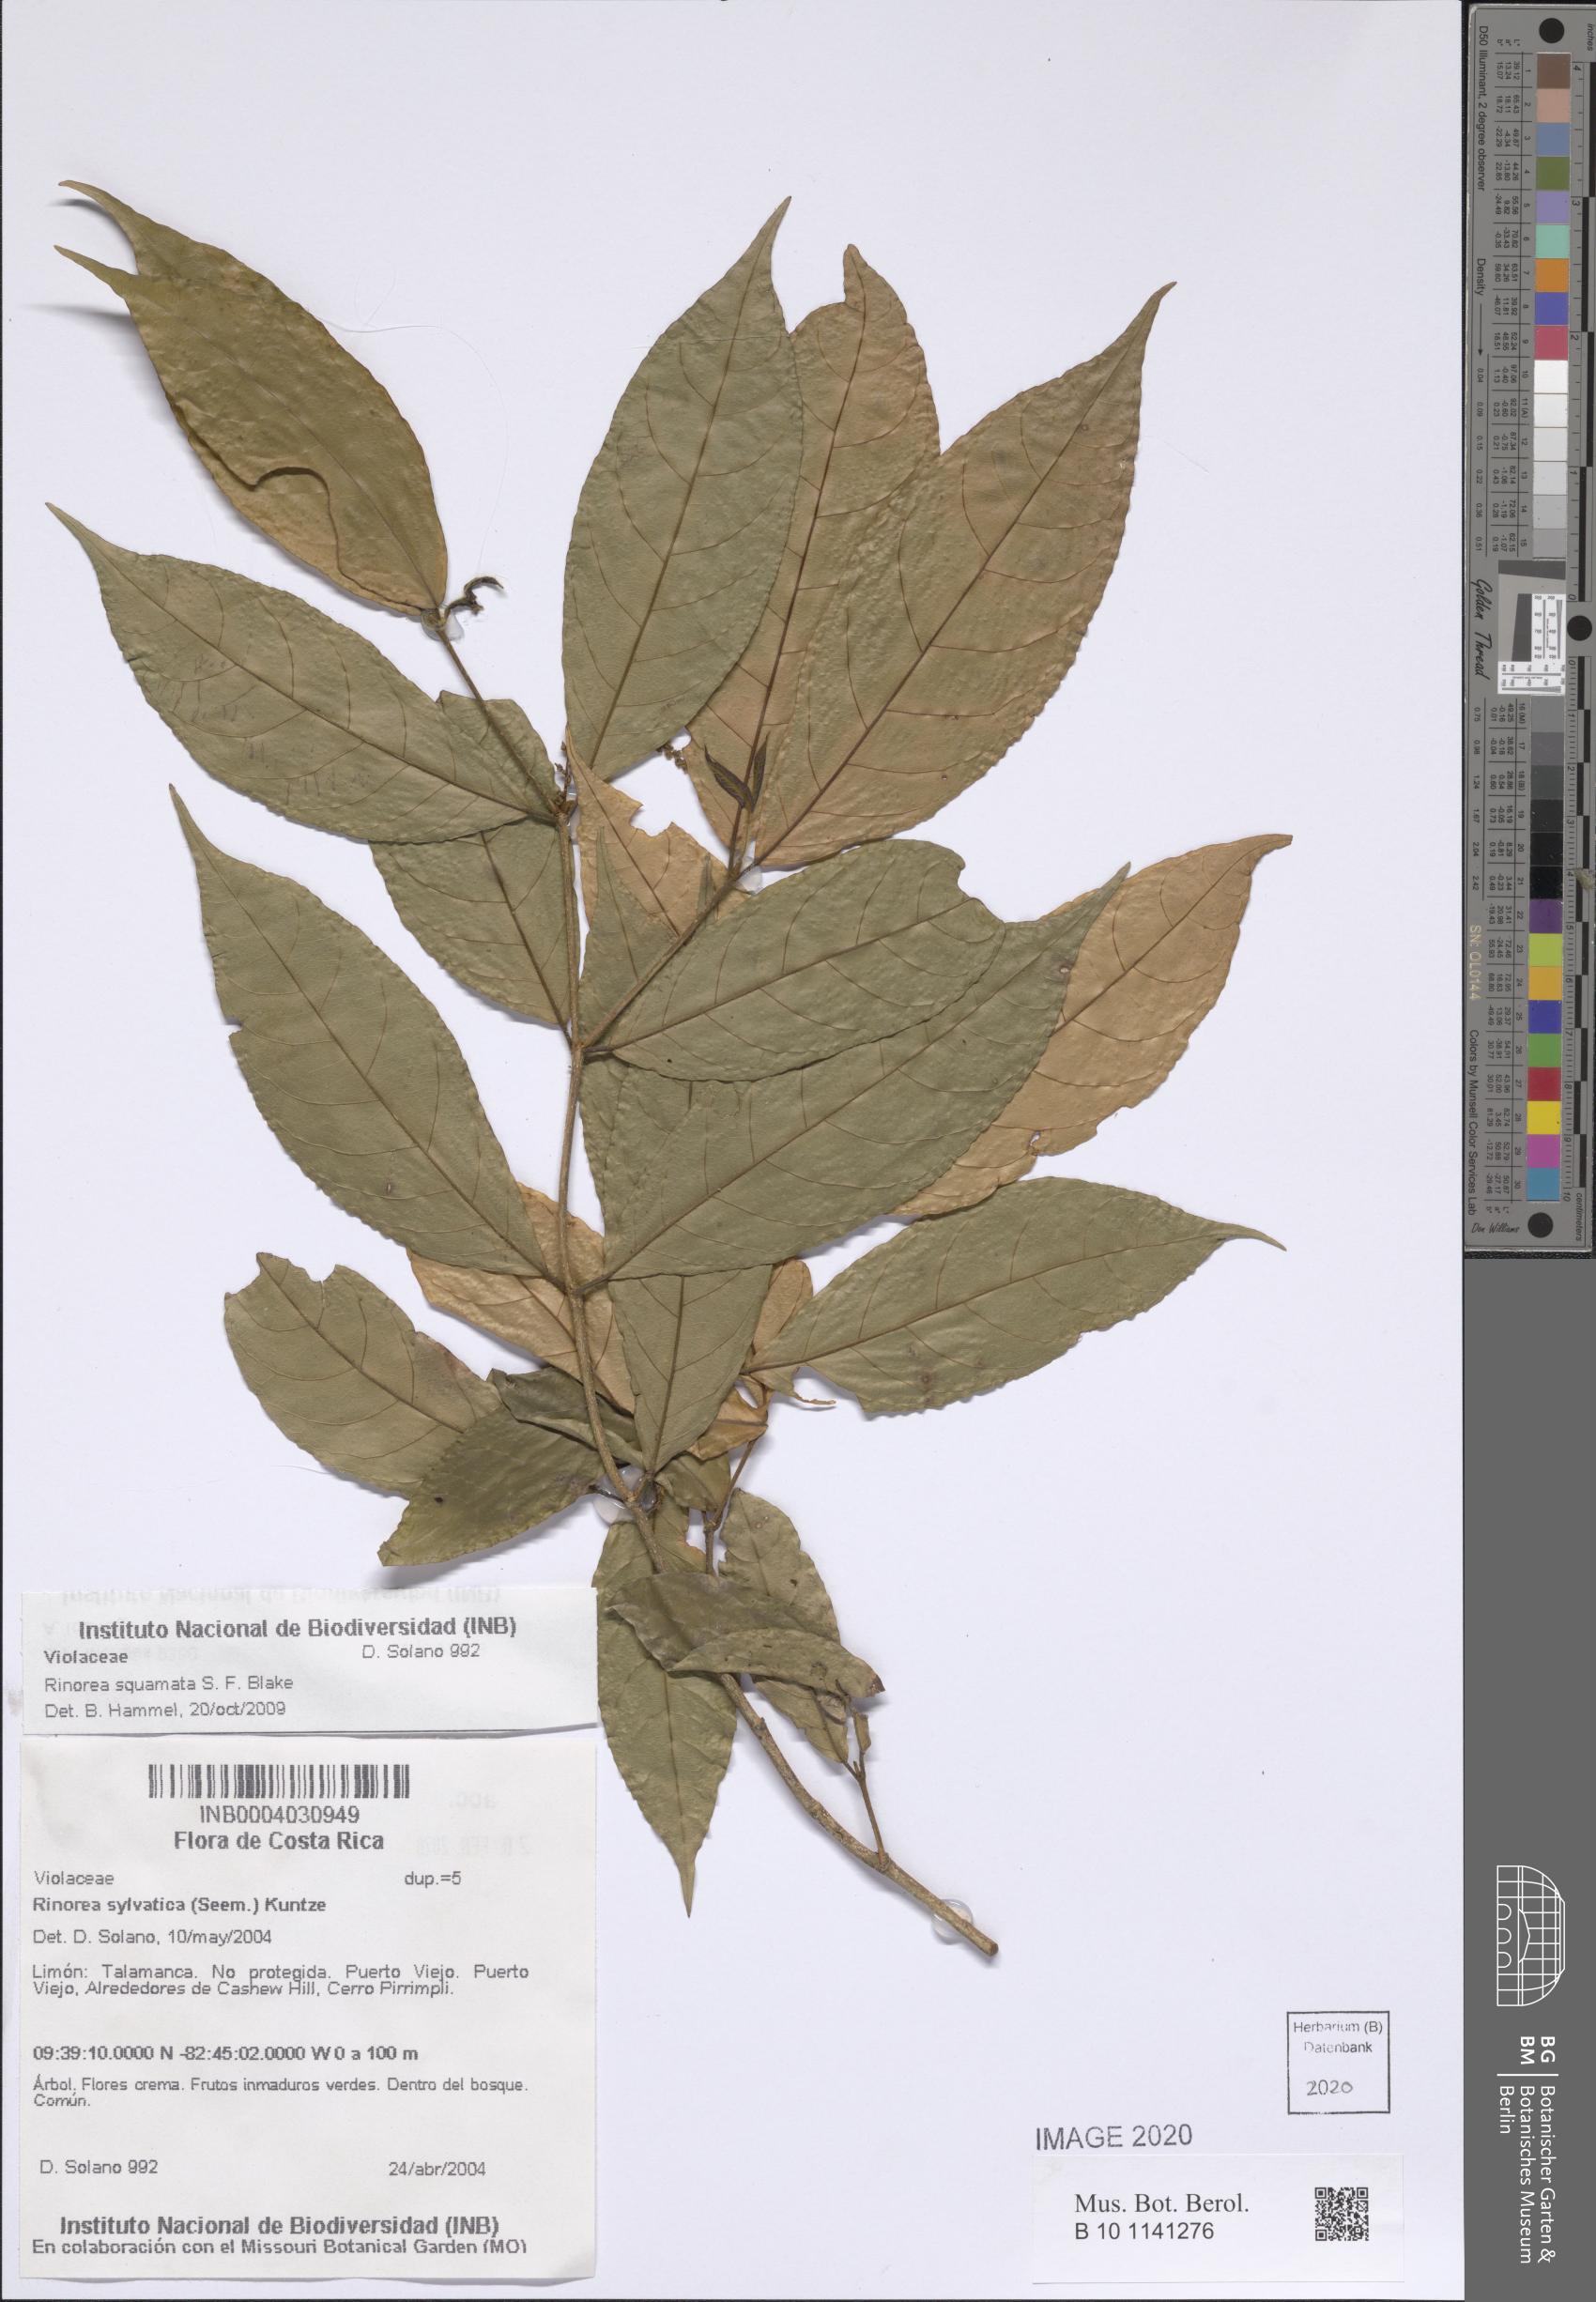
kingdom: Plantae
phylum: Tracheophyta
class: Magnoliopsida
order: Malpighiales
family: Violaceae
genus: Rinorea
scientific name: Rinorea squamata
